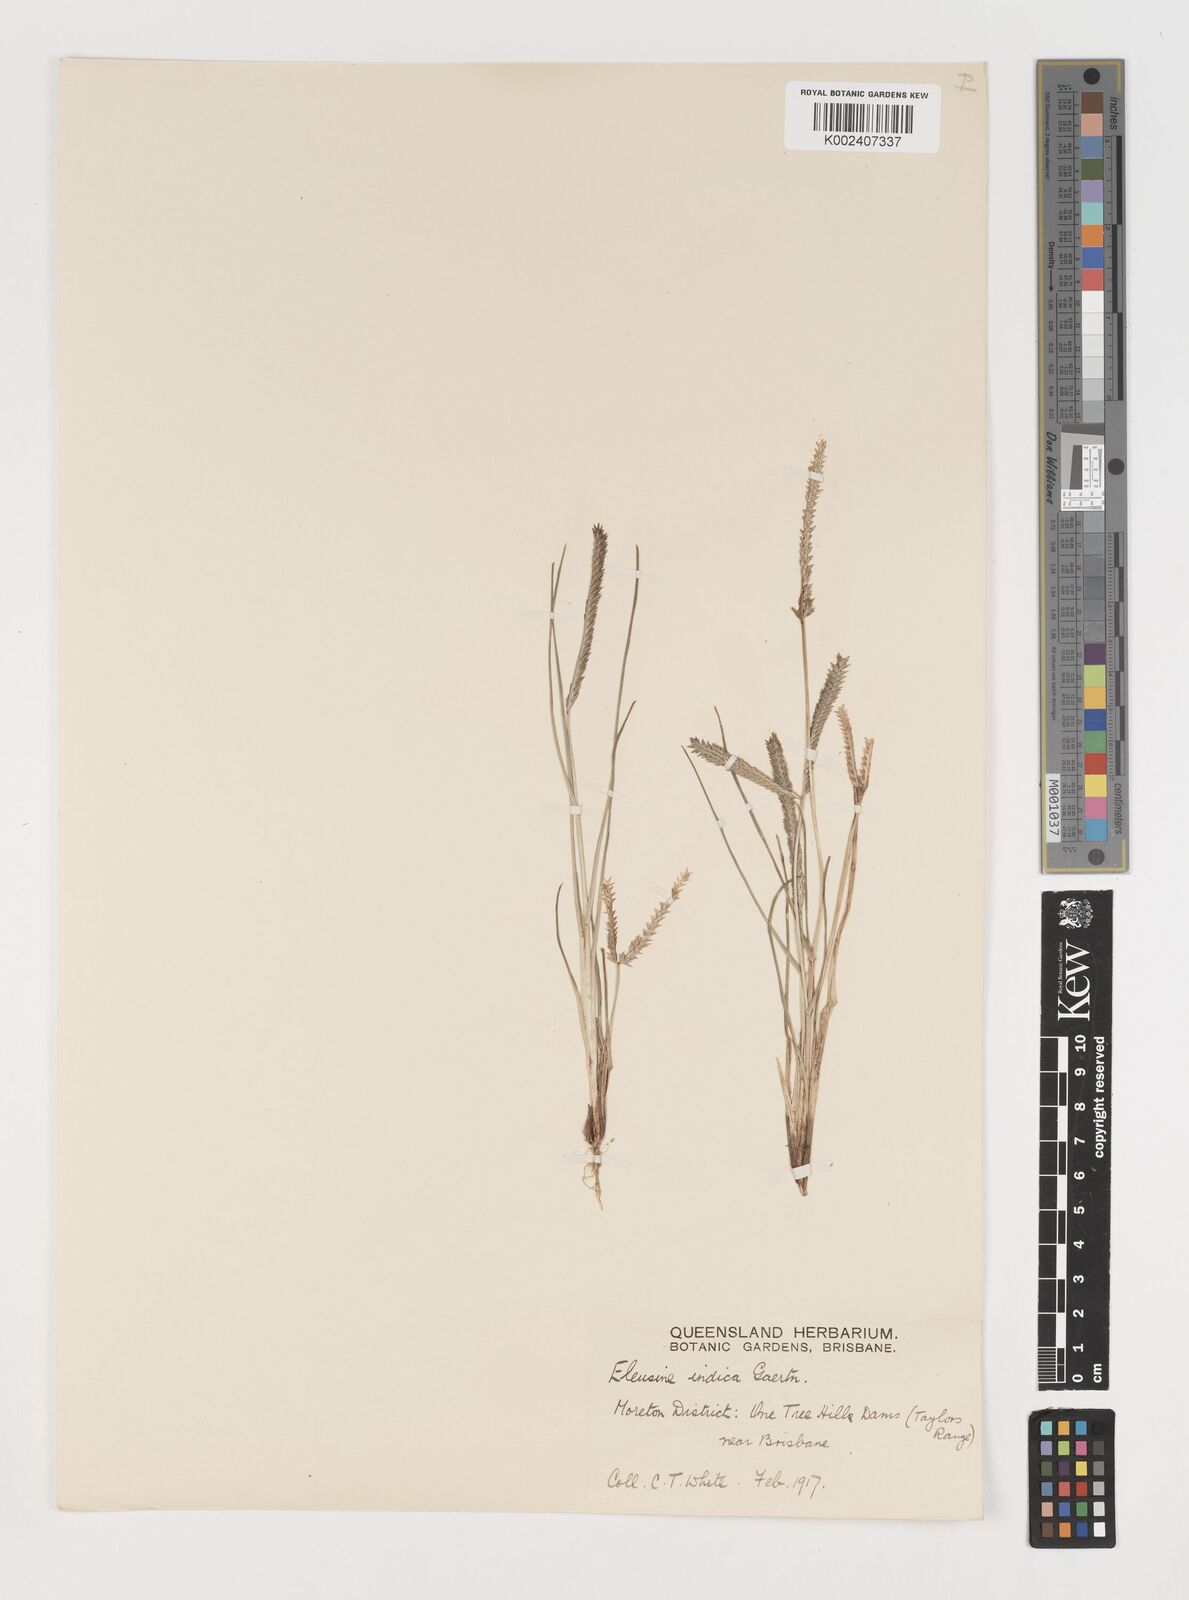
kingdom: Plantae
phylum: Tracheophyta
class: Liliopsida
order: Poales
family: Poaceae
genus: Eleusine
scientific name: Eleusine indica
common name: Yard-grass
